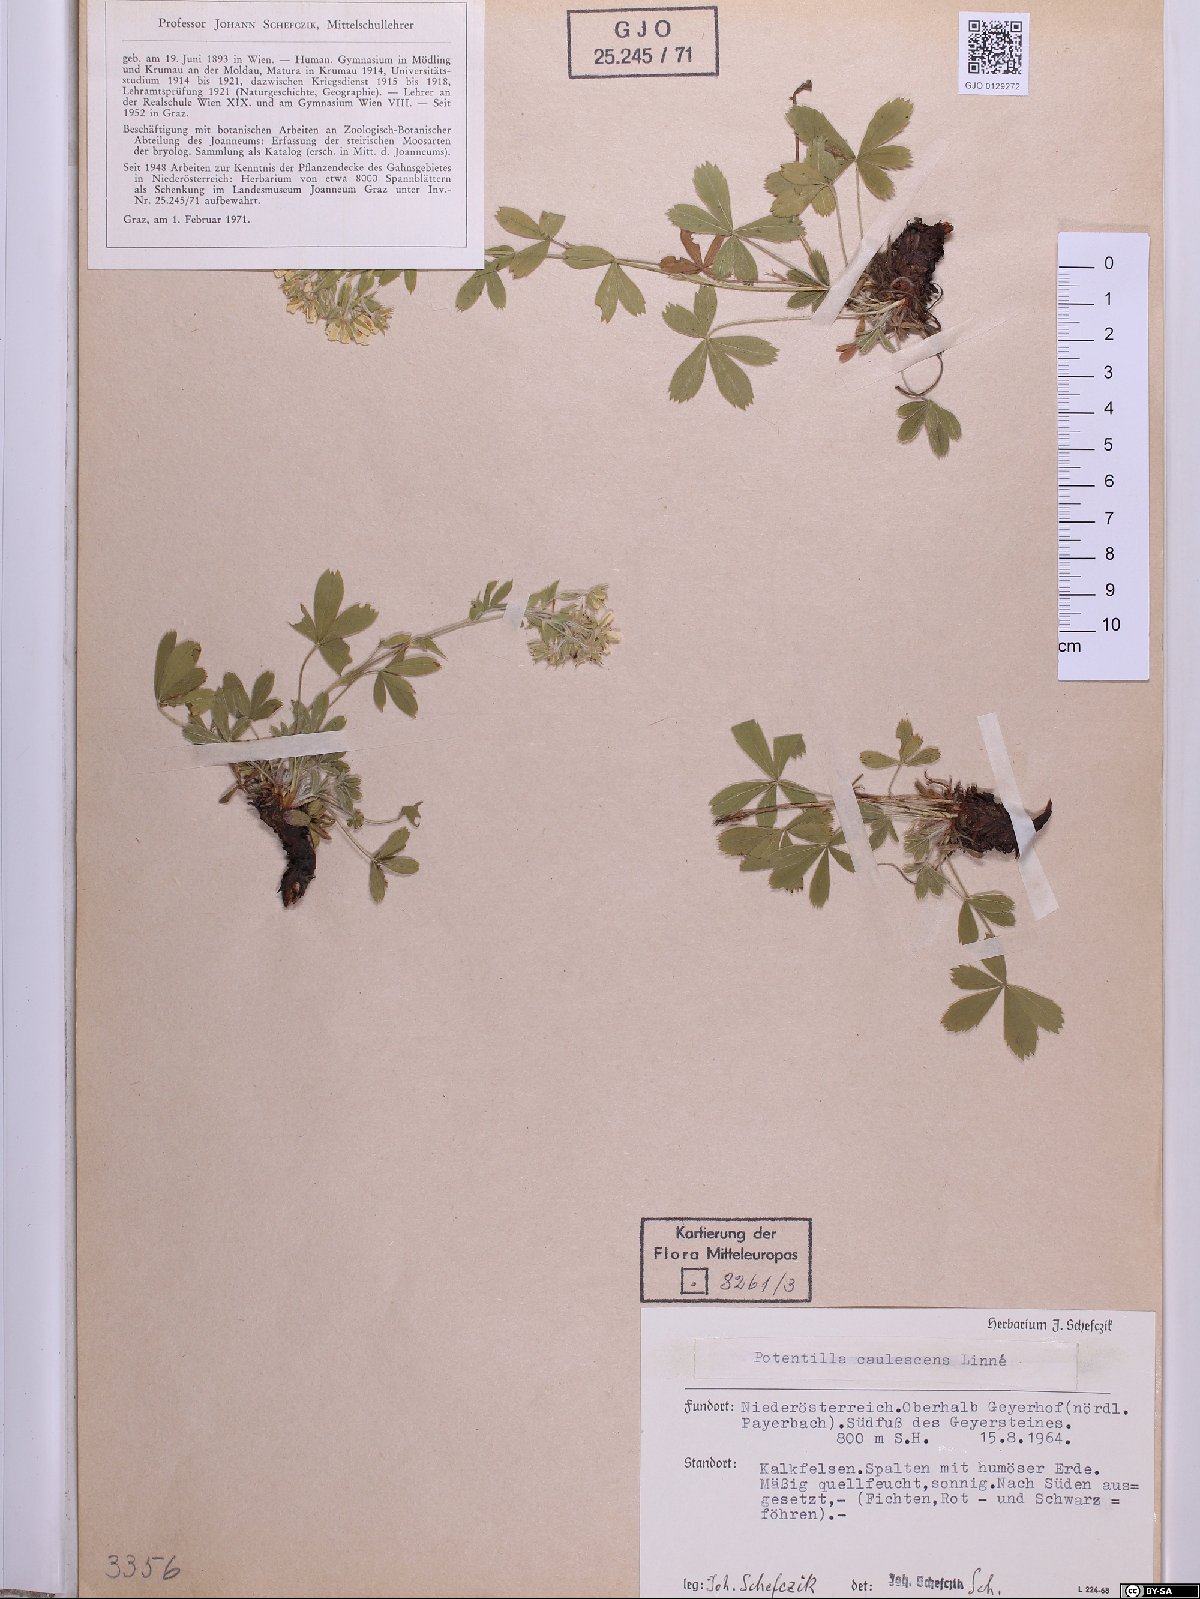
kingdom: Plantae
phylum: Tracheophyta
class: Magnoliopsida
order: Rosales
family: Rosaceae
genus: Potentilla
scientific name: Potentilla caulescens
